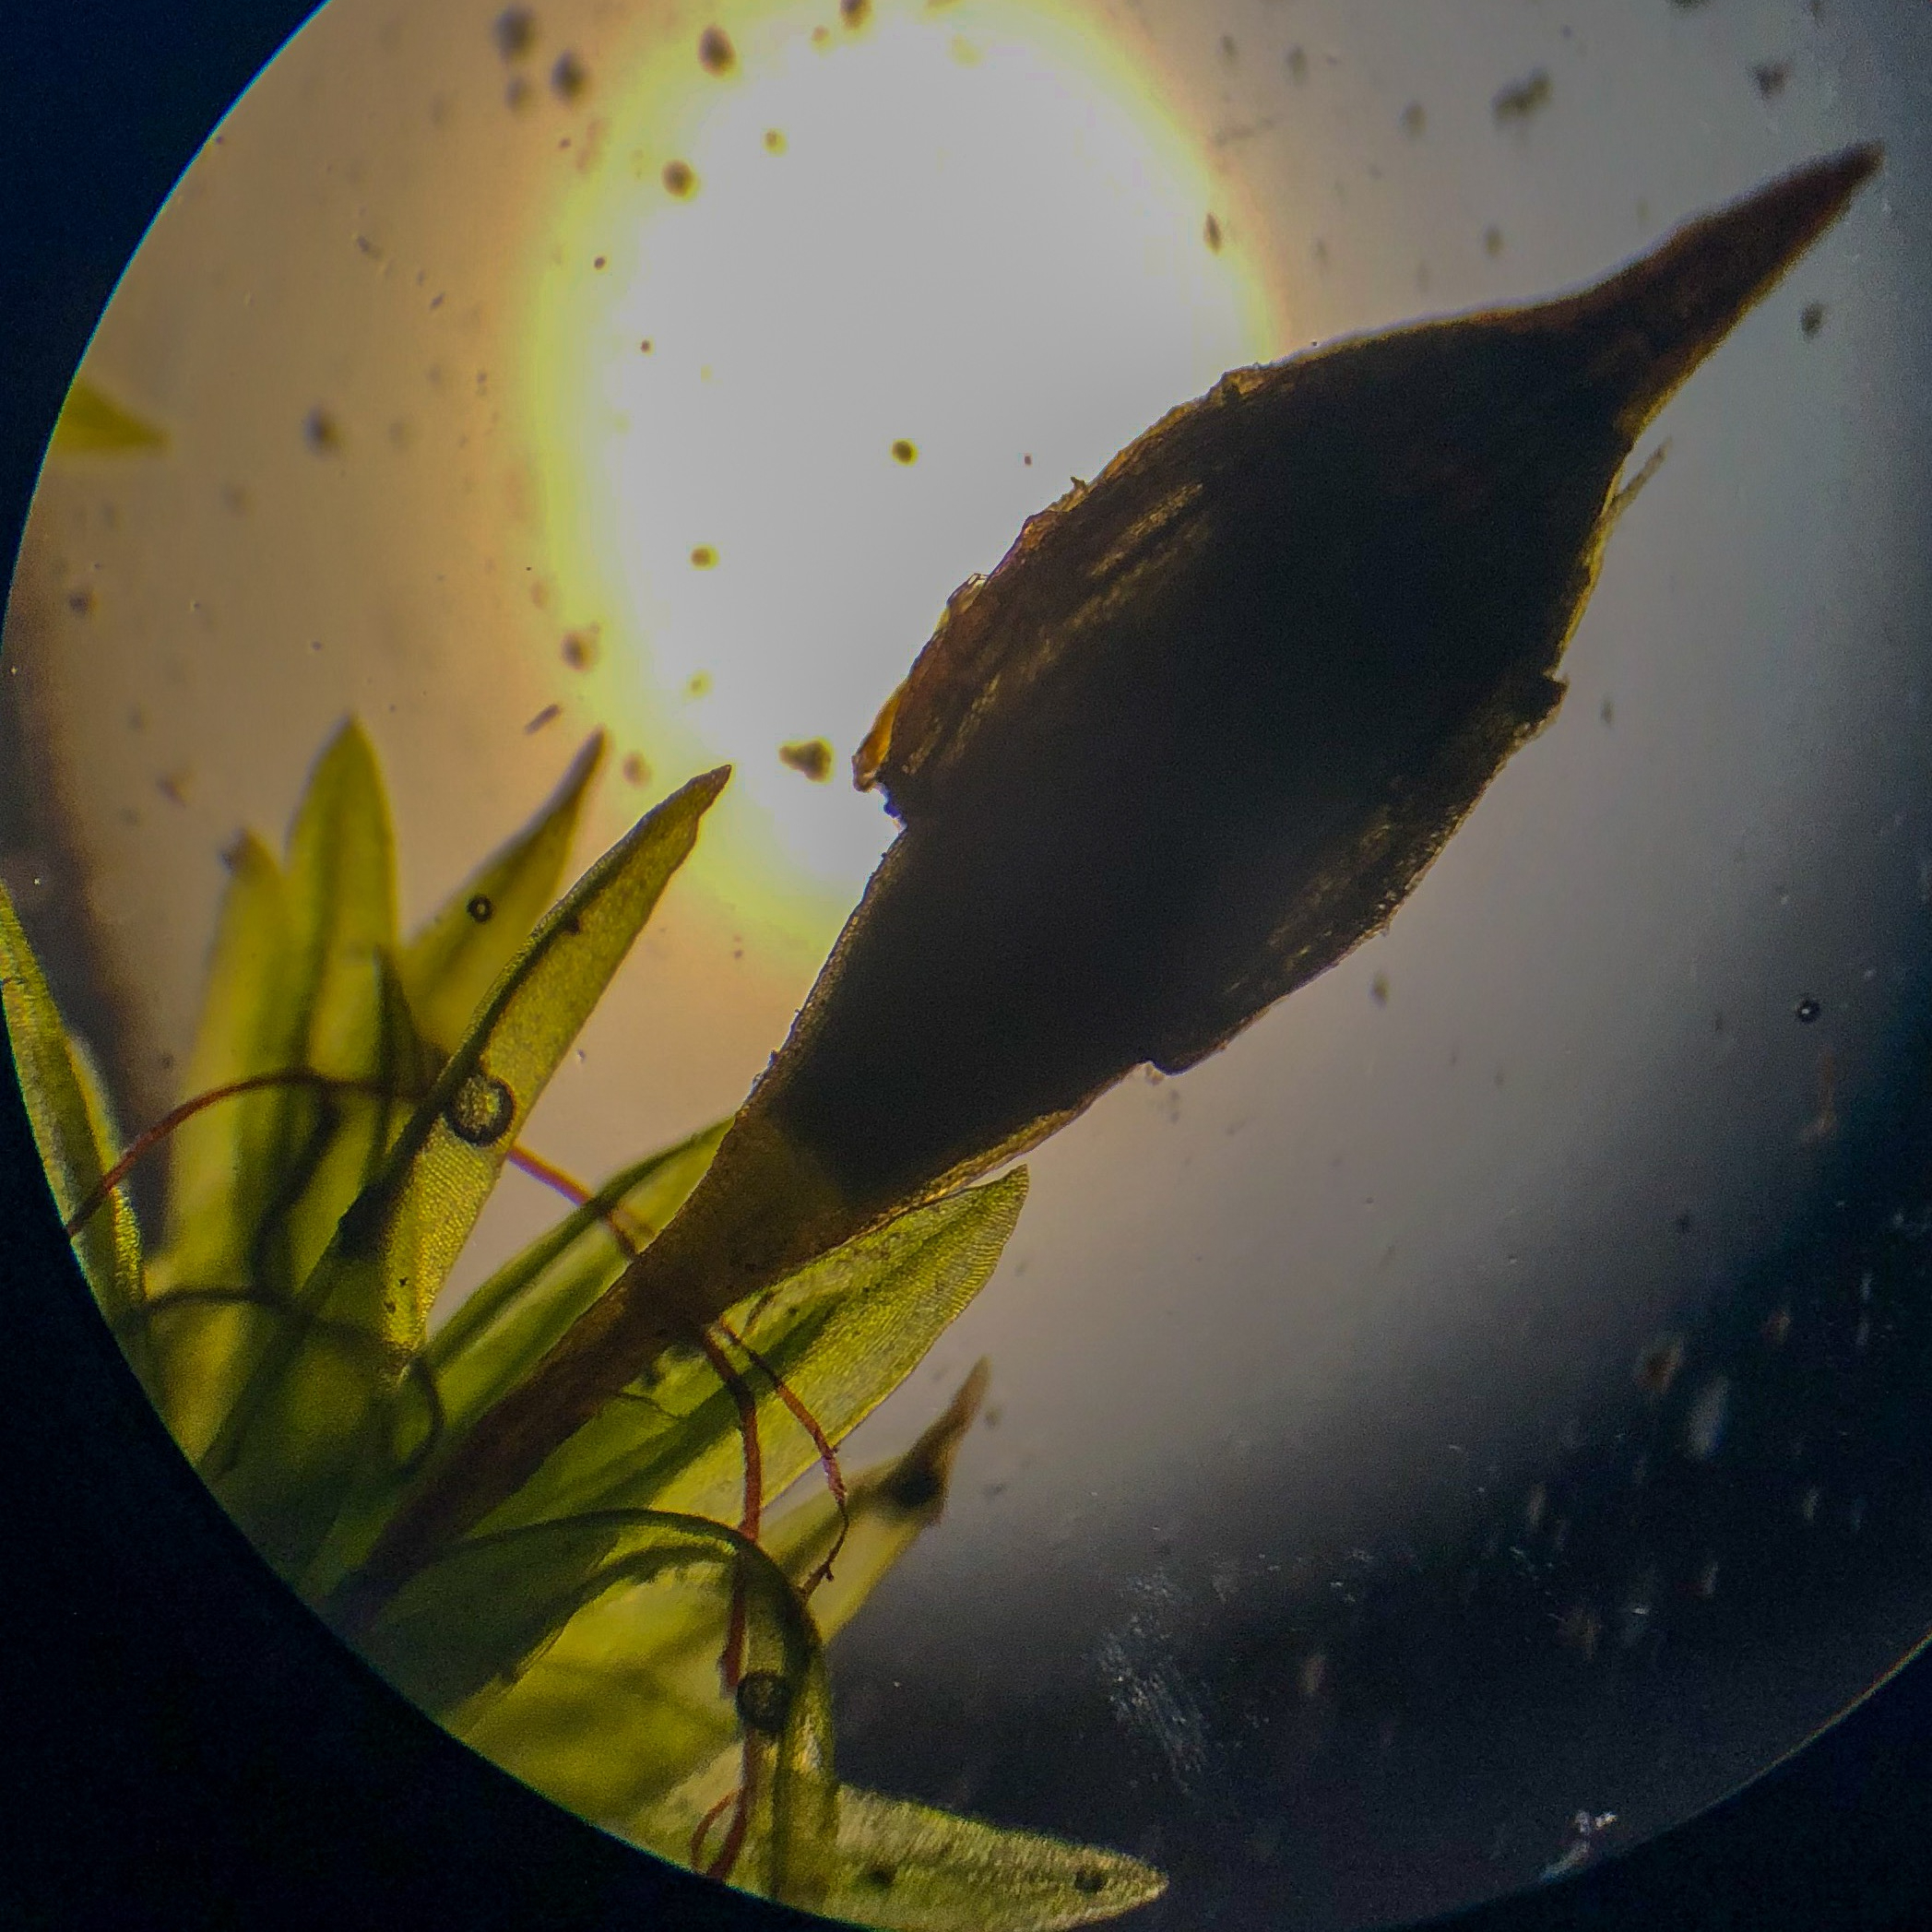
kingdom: Plantae
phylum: Bryophyta
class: Bryopsida
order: Orthotrichales
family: Orthotrichaceae
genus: Orthotrichum
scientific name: Orthotrichum
